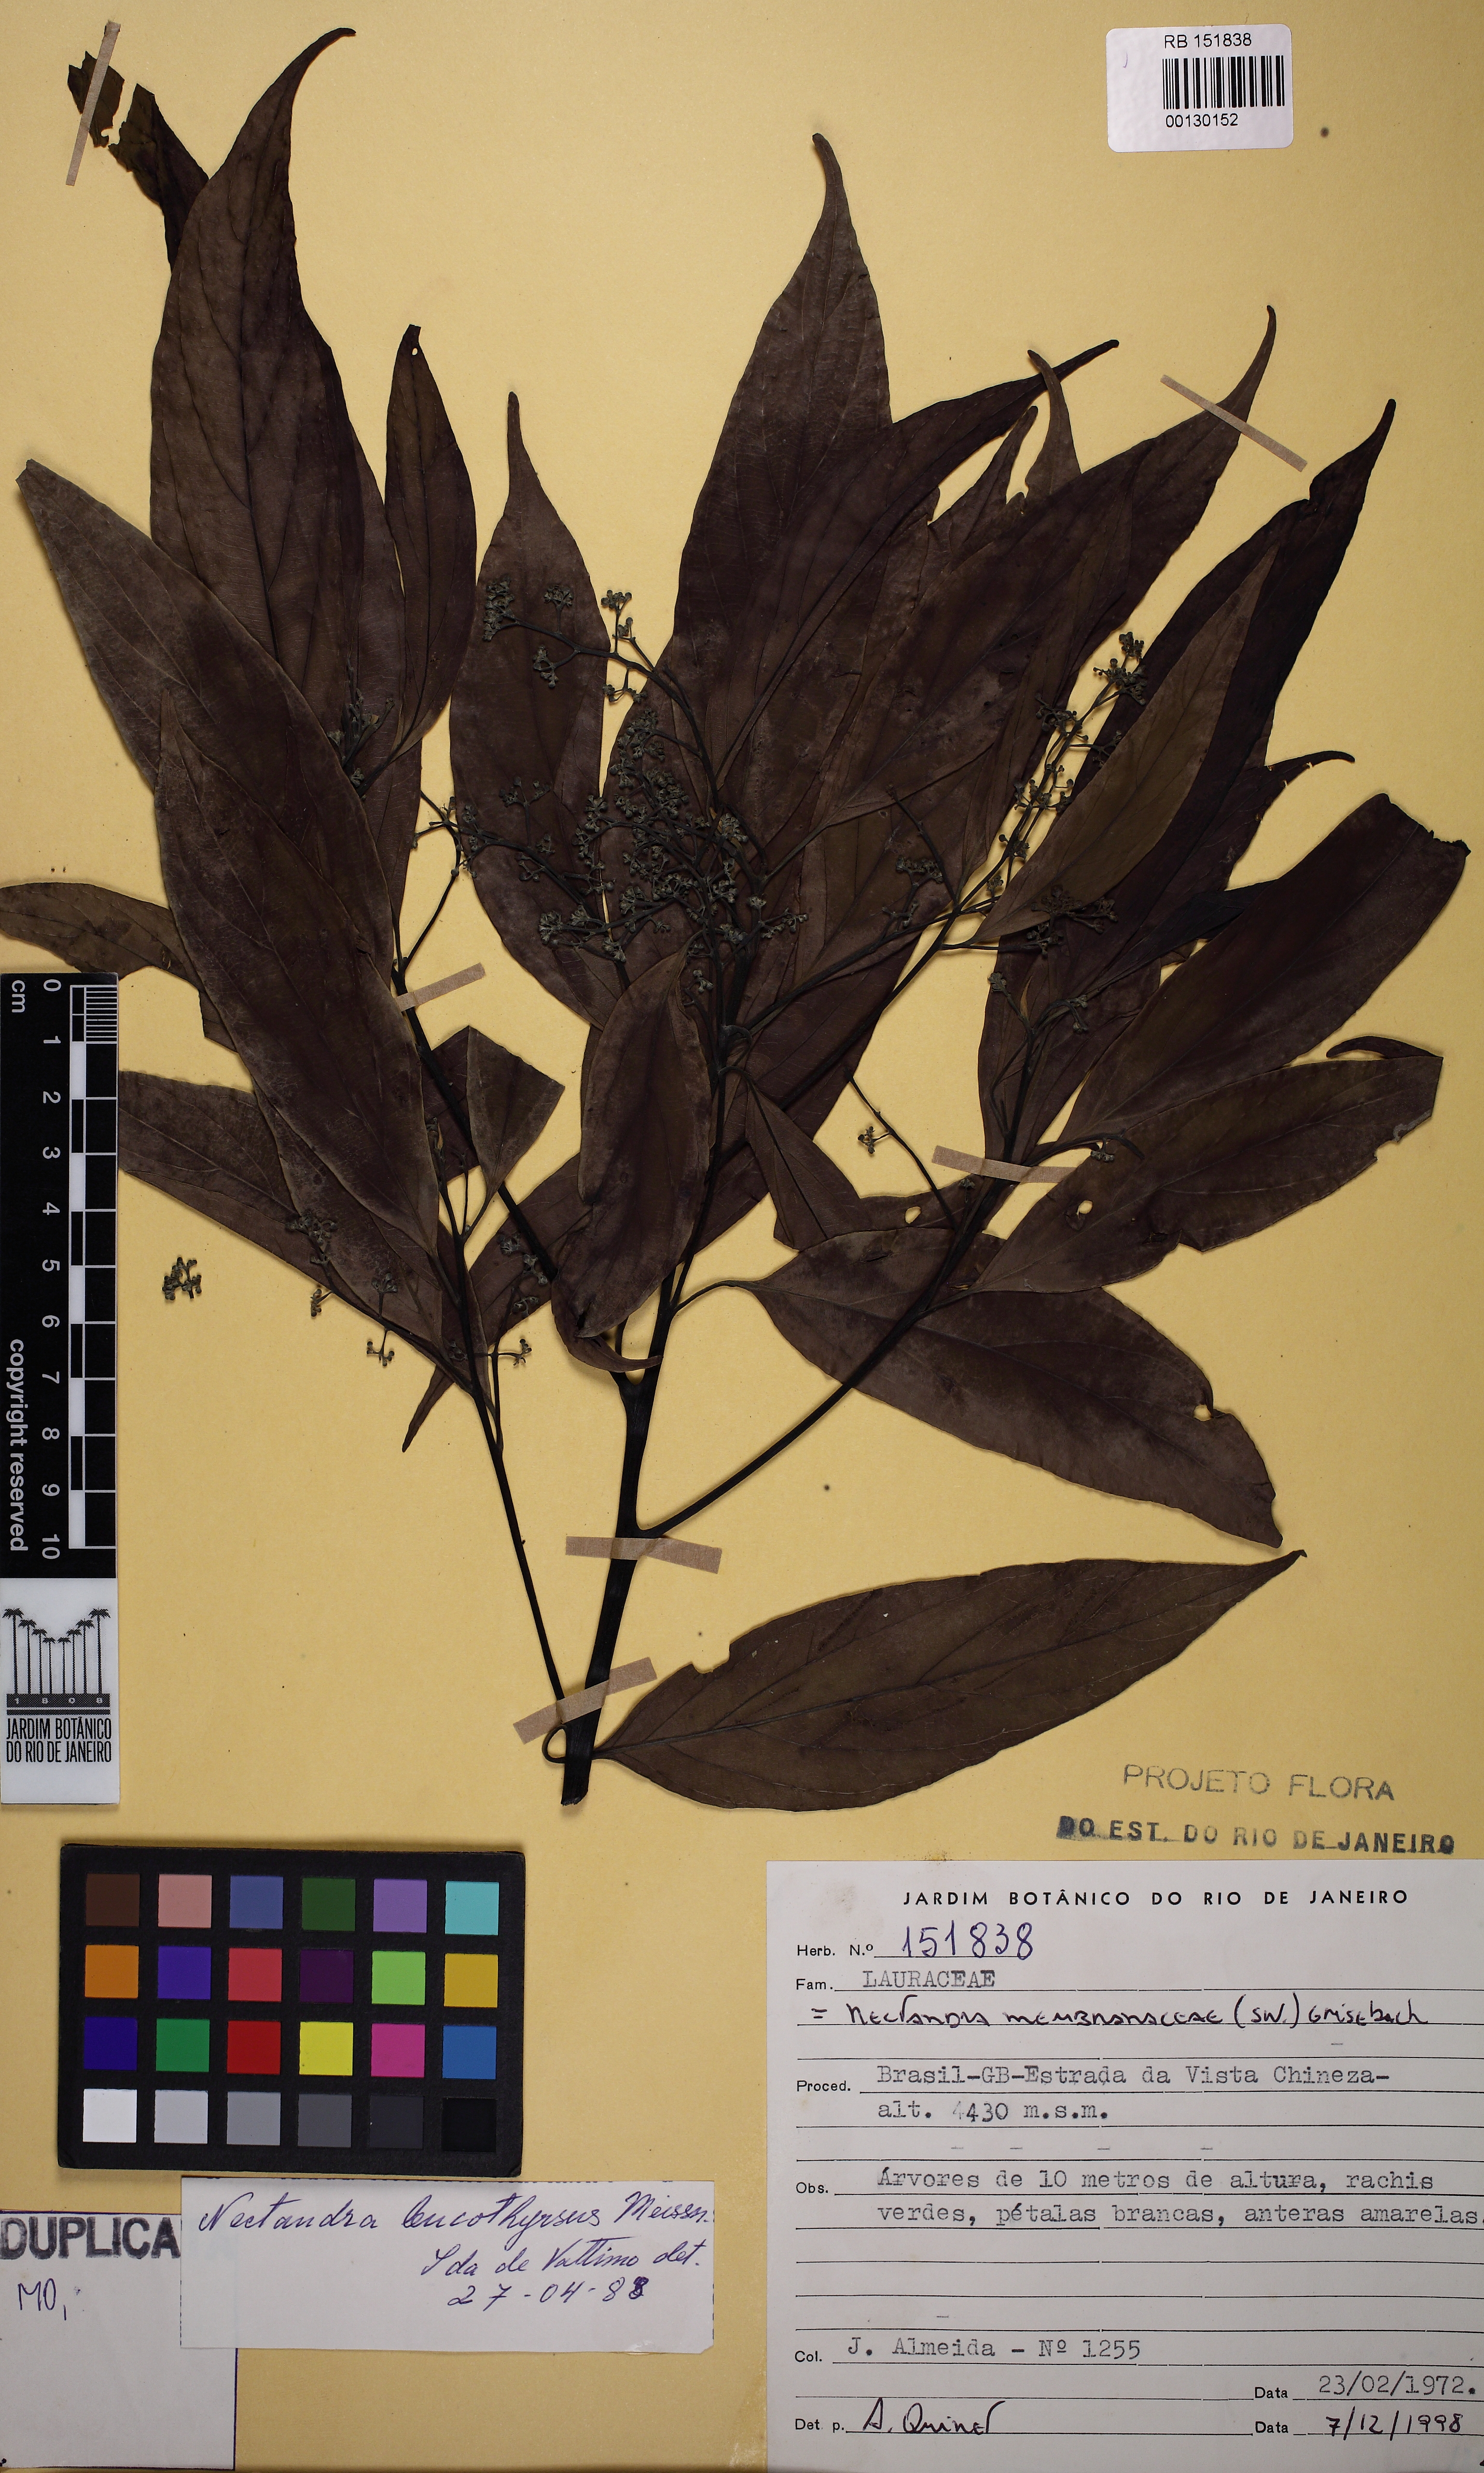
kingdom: Plantae
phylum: Tracheophyta
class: Magnoliopsida
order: Laurales
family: Lauraceae
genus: Nectandra
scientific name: Nectandra membranacea
